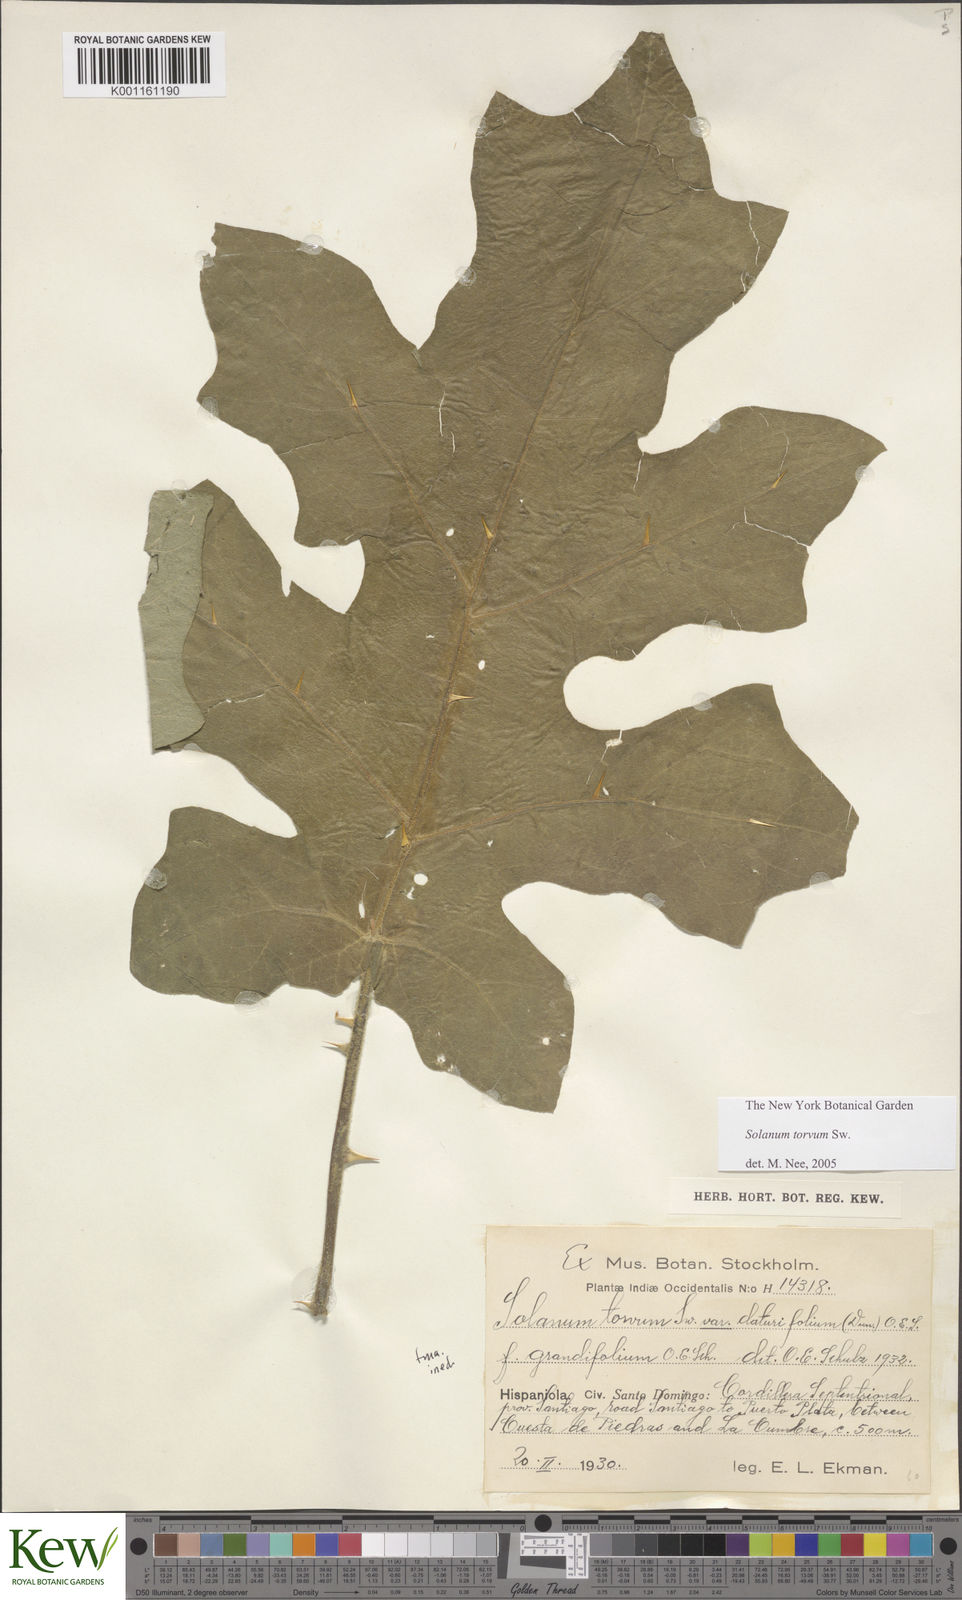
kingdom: Plantae
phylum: Tracheophyta
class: Magnoliopsida
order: Solanales
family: Solanaceae
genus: Solanum
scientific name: Solanum torvum
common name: Turkey berry
